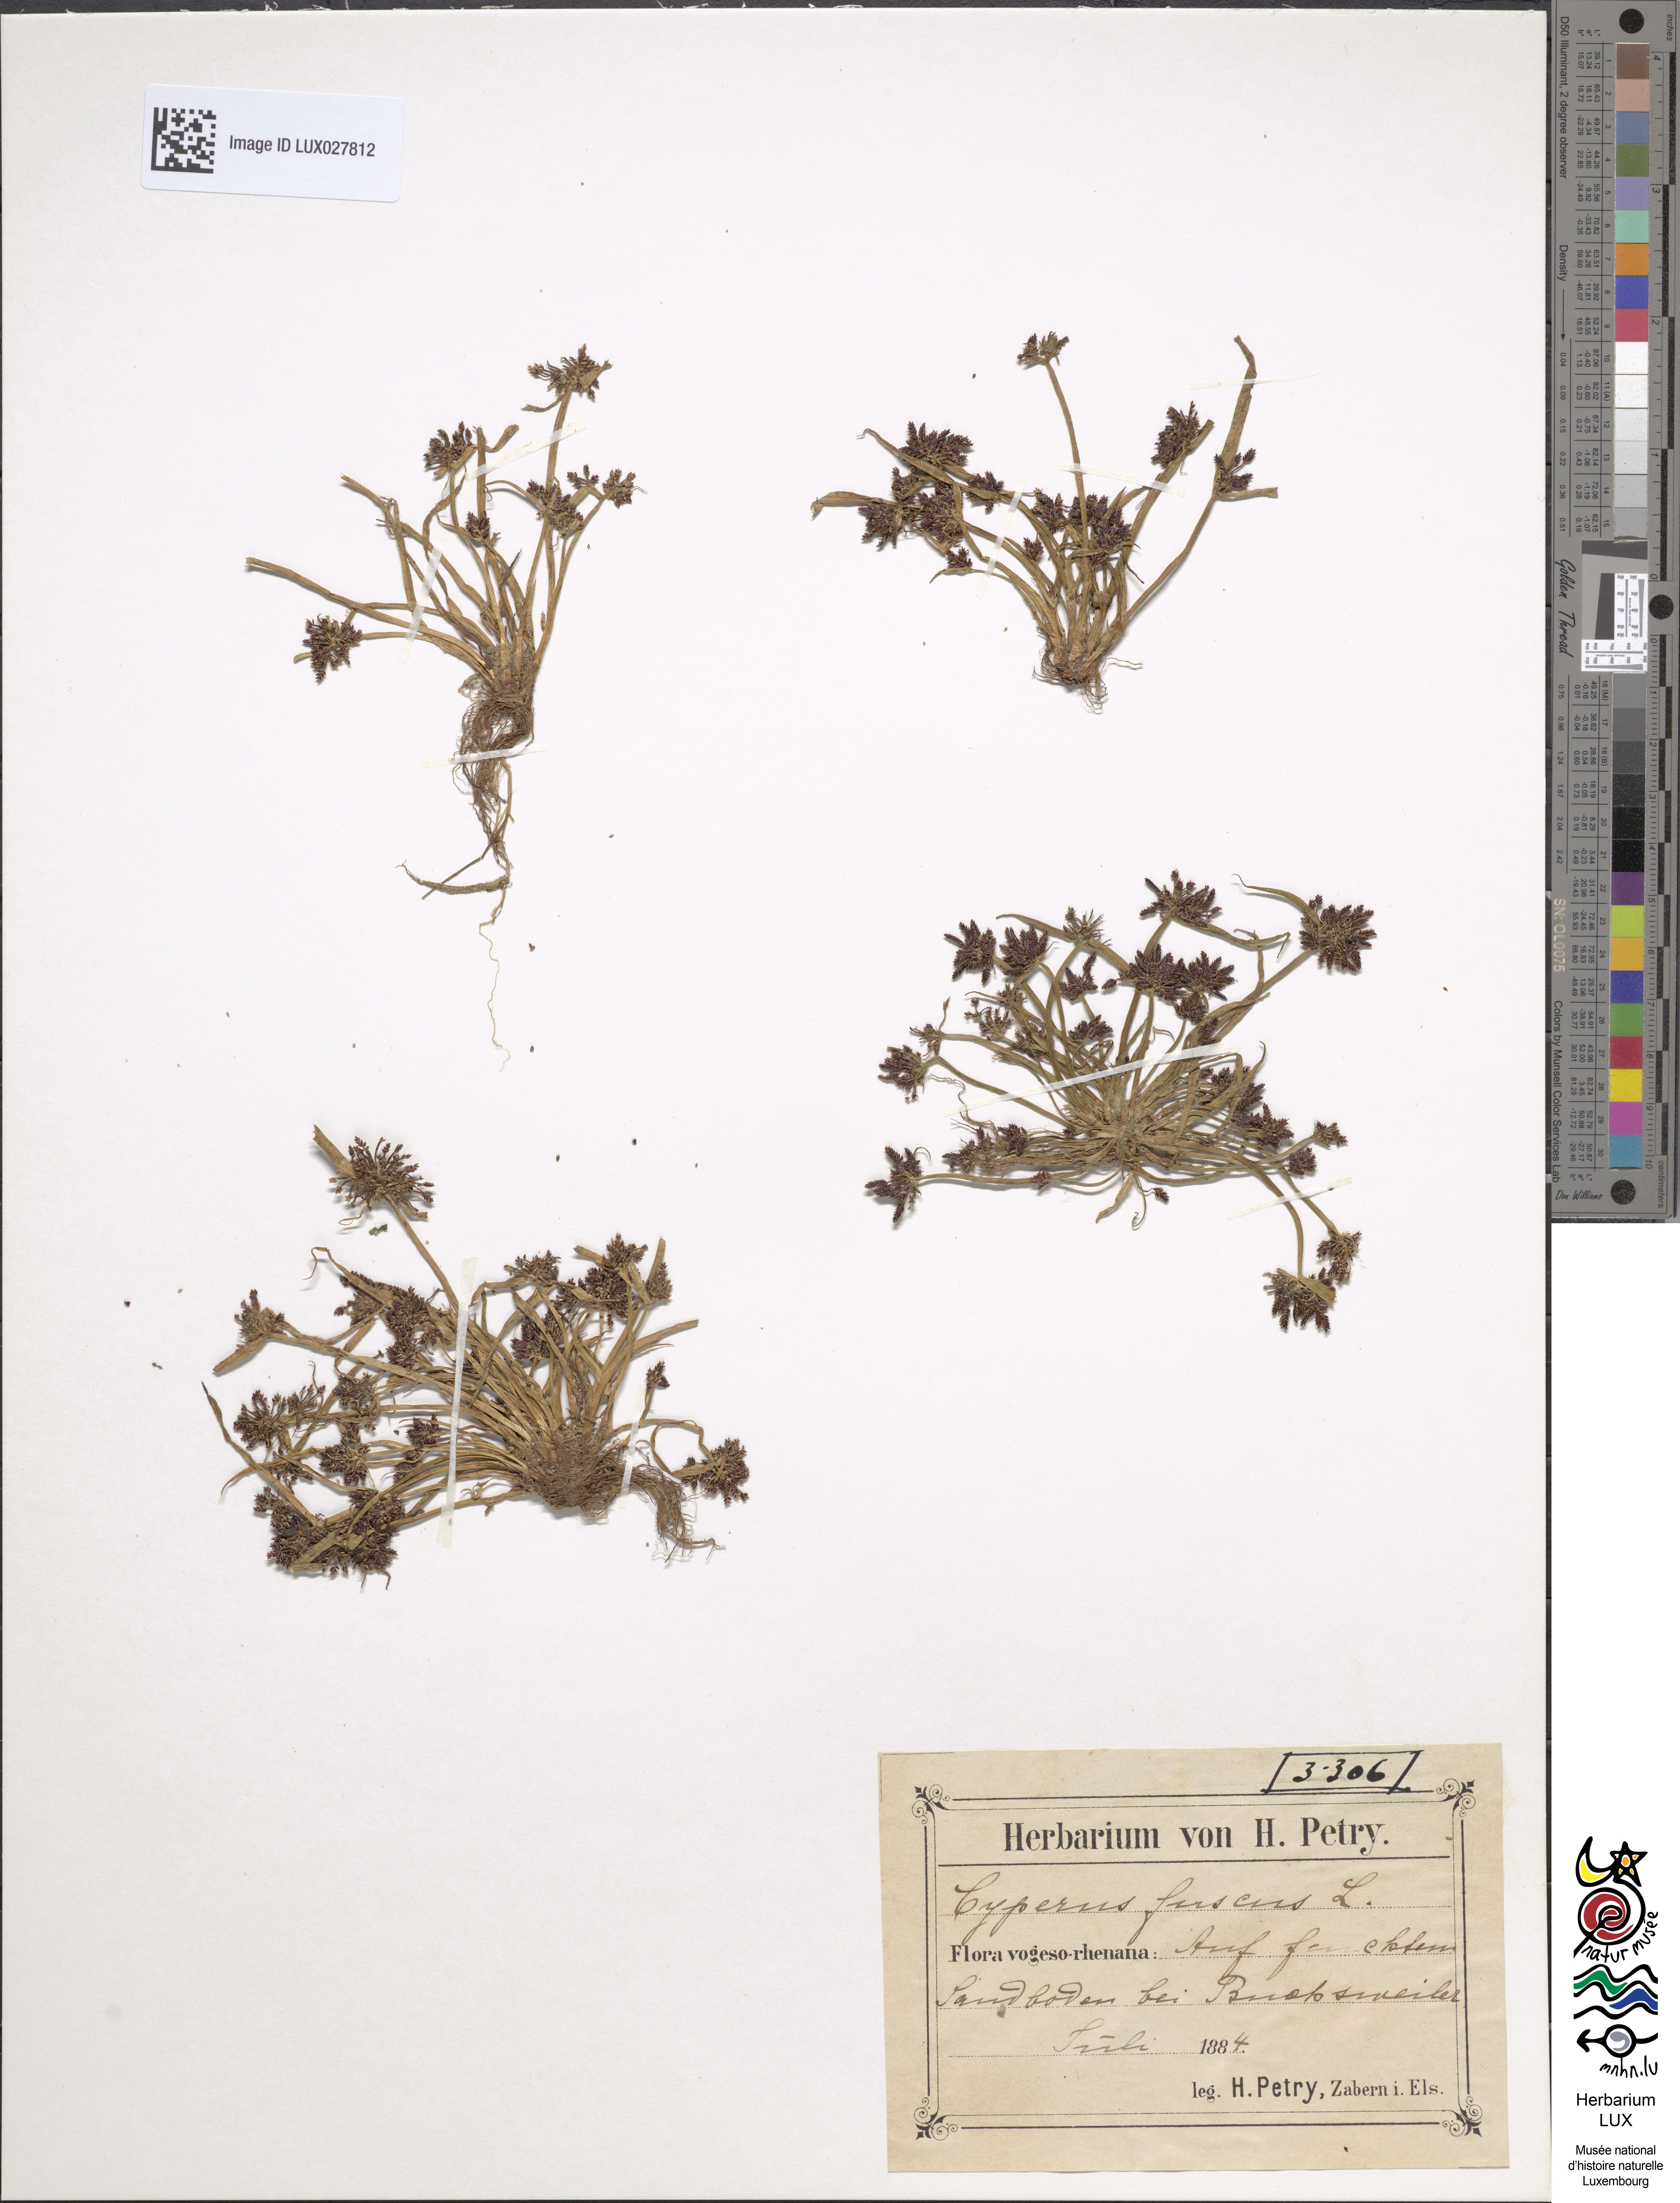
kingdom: Plantae
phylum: Tracheophyta
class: Liliopsida
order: Poales
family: Cyperaceae
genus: Cyperus
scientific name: Cyperus fuscus
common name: Brown galingale
